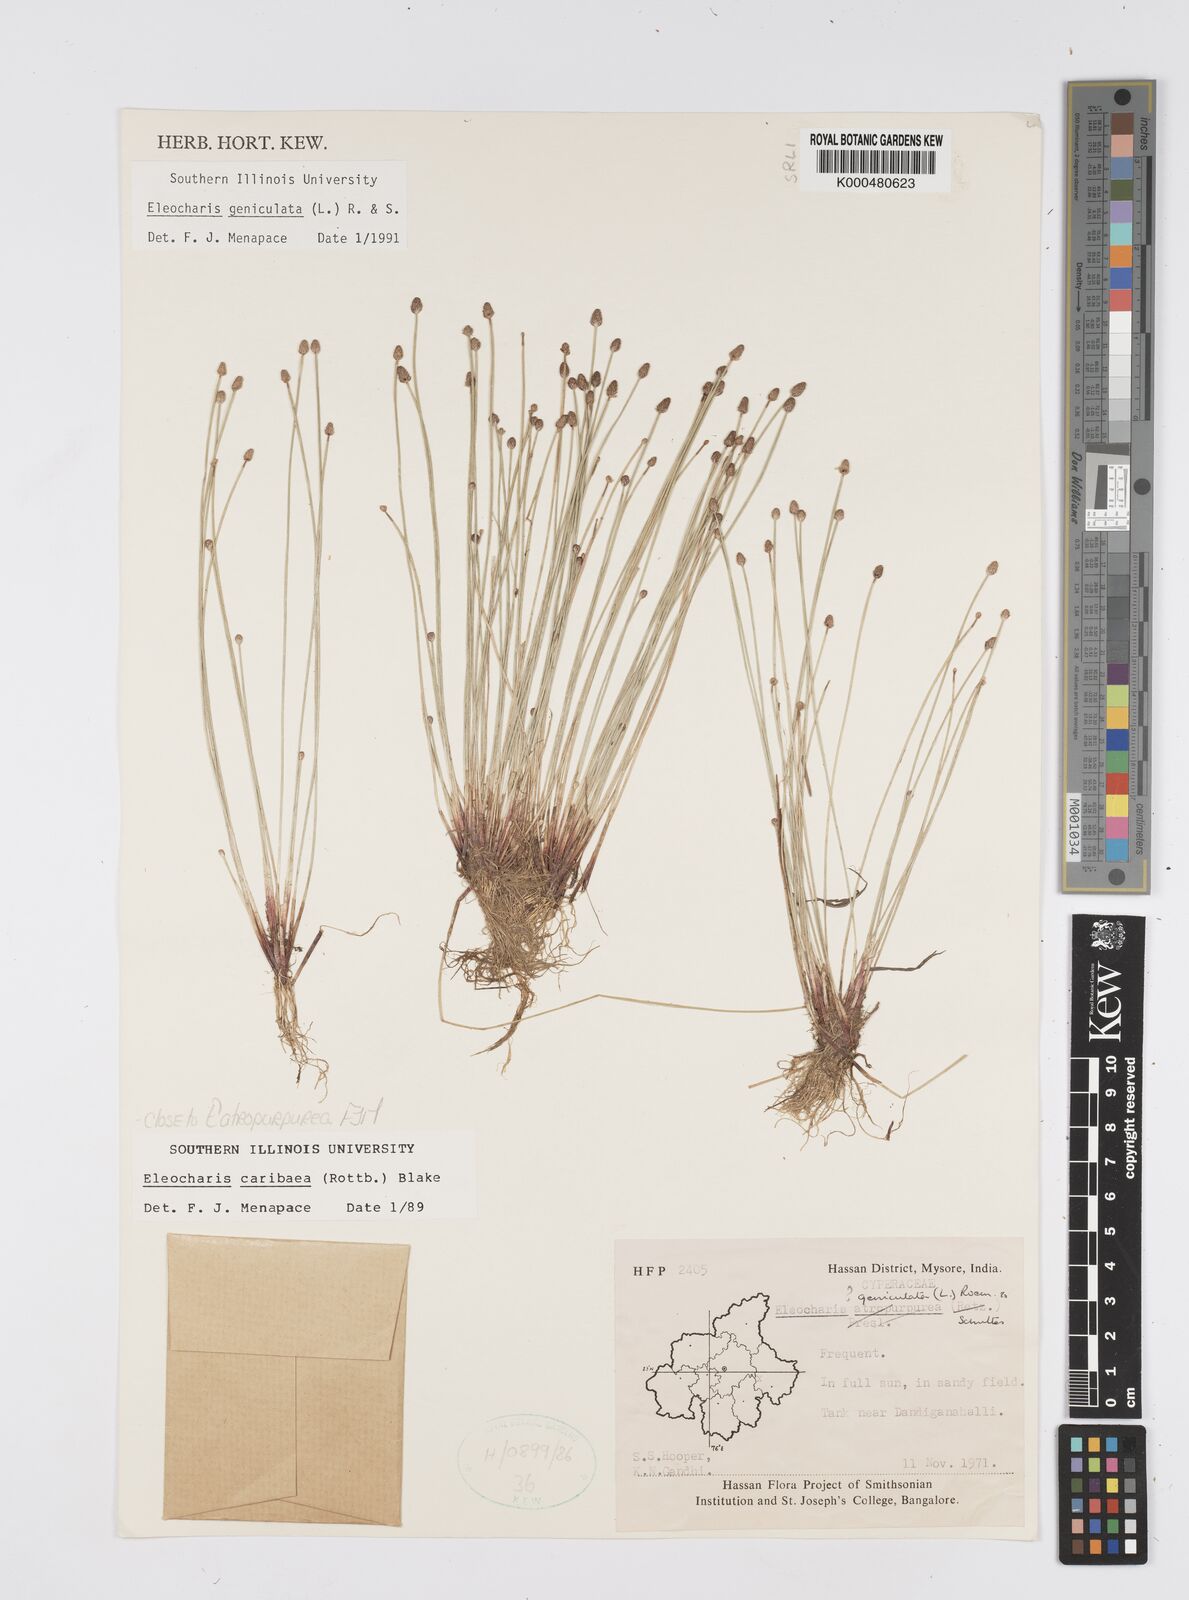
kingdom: Plantae
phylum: Tracheophyta
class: Liliopsida
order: Poales
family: Cyperaceae
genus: Eleocharis
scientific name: Eleocharis geniculata
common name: Canada spikesedge
